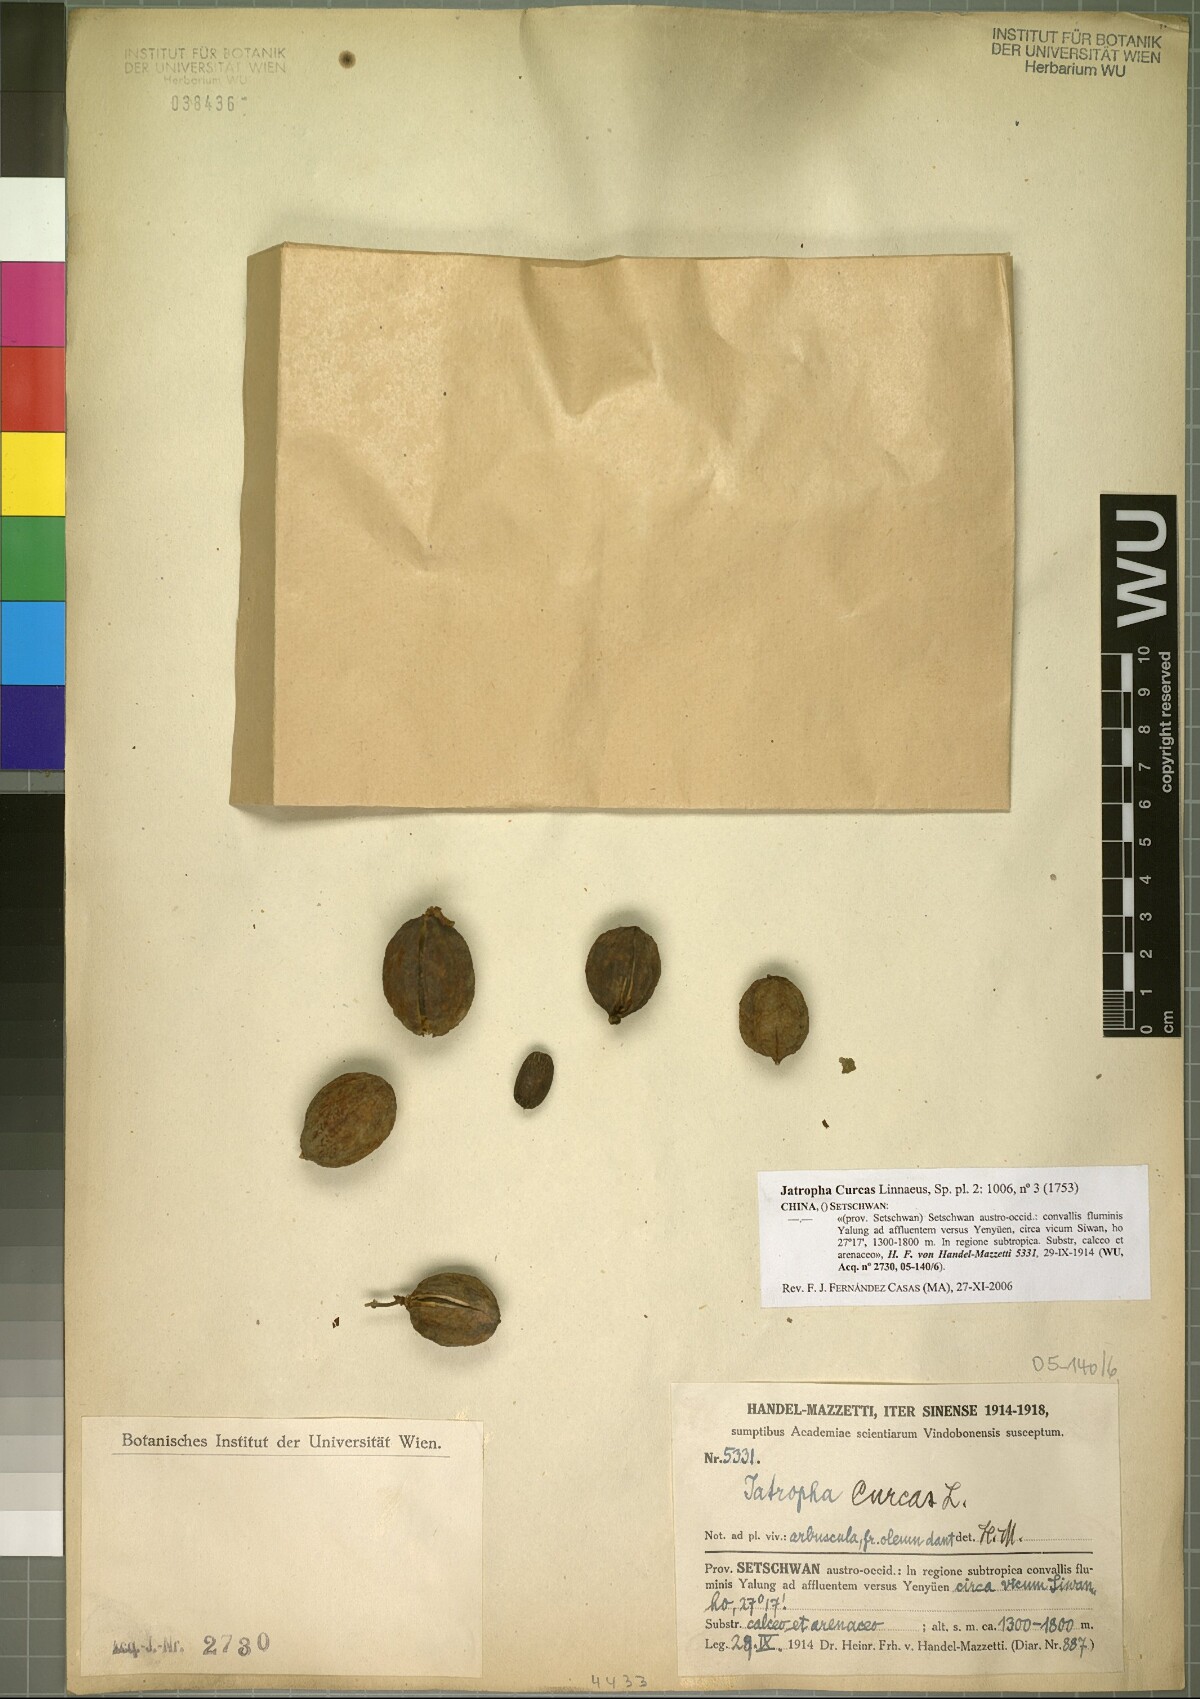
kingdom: Plantae
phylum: Tracheophyta
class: Magnoliopsida
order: Malpighiales
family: Euphorbiaceae
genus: Jatropha
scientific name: Jatropha curcas
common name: Barbados nut
